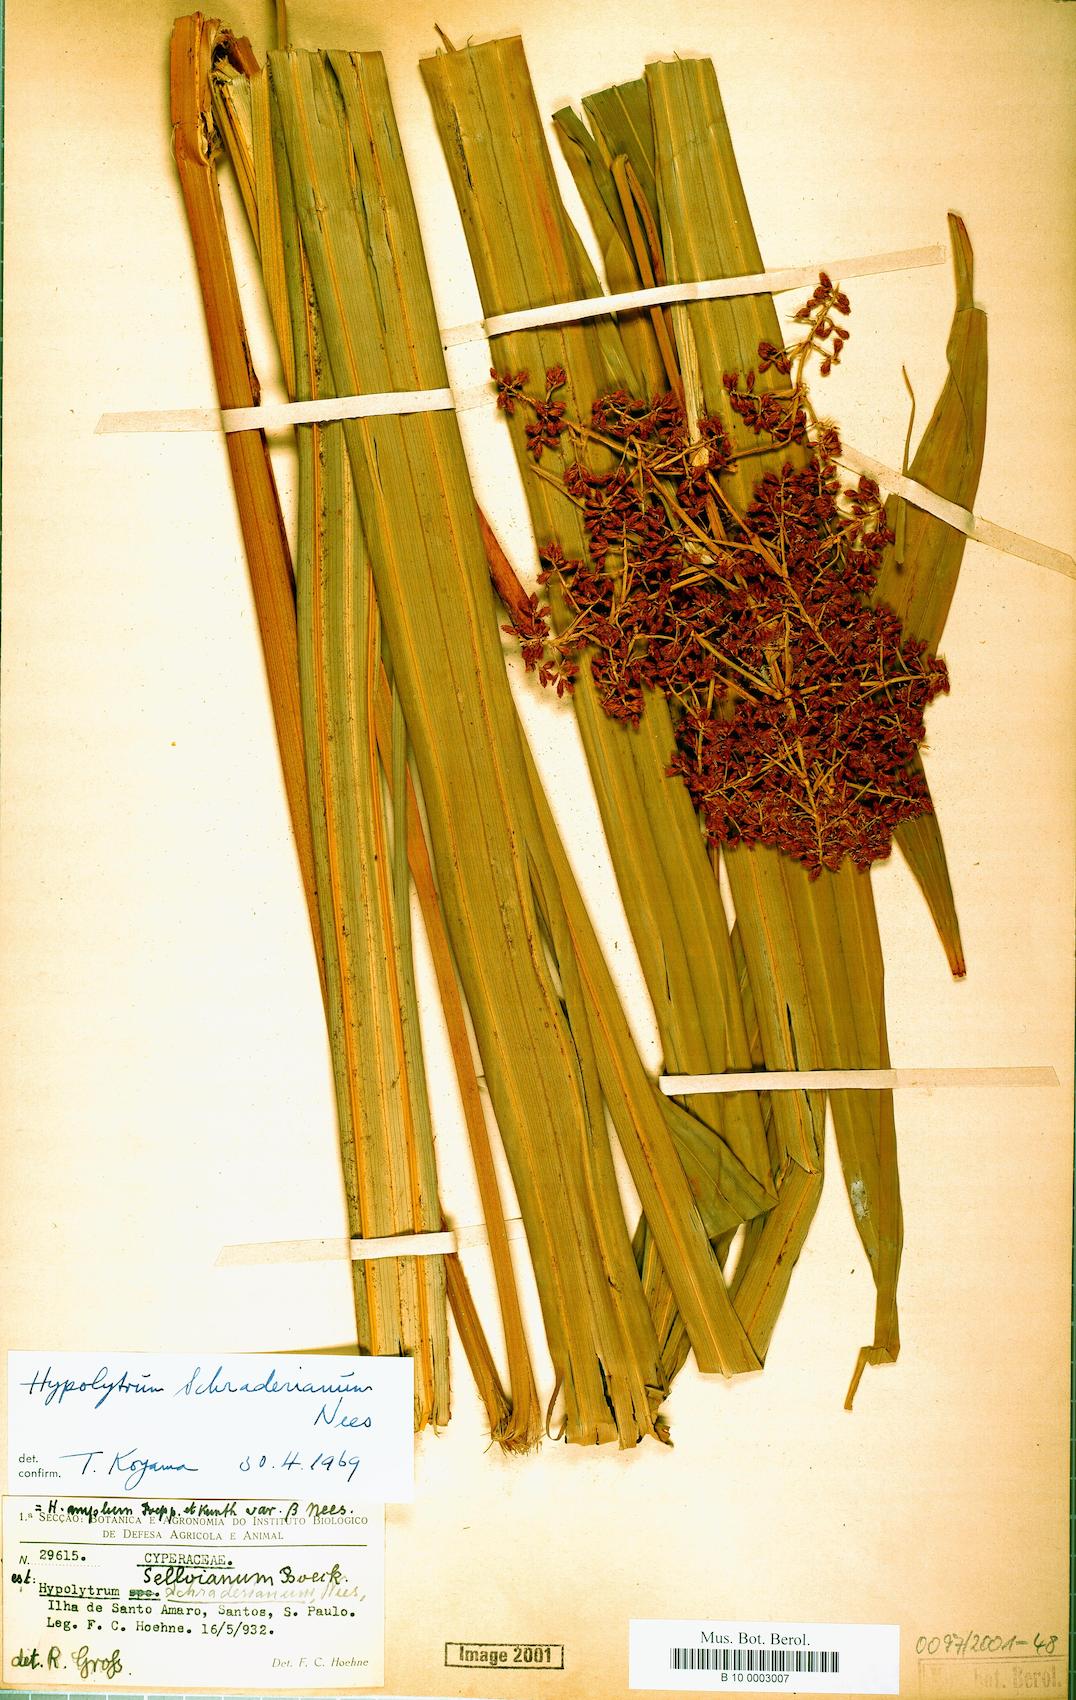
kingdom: Plantae
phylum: Tracheophyta
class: Liliopsida
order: Poales
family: Cyperaceae
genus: Hypolytrum
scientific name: Hypolytrum schraderianum
